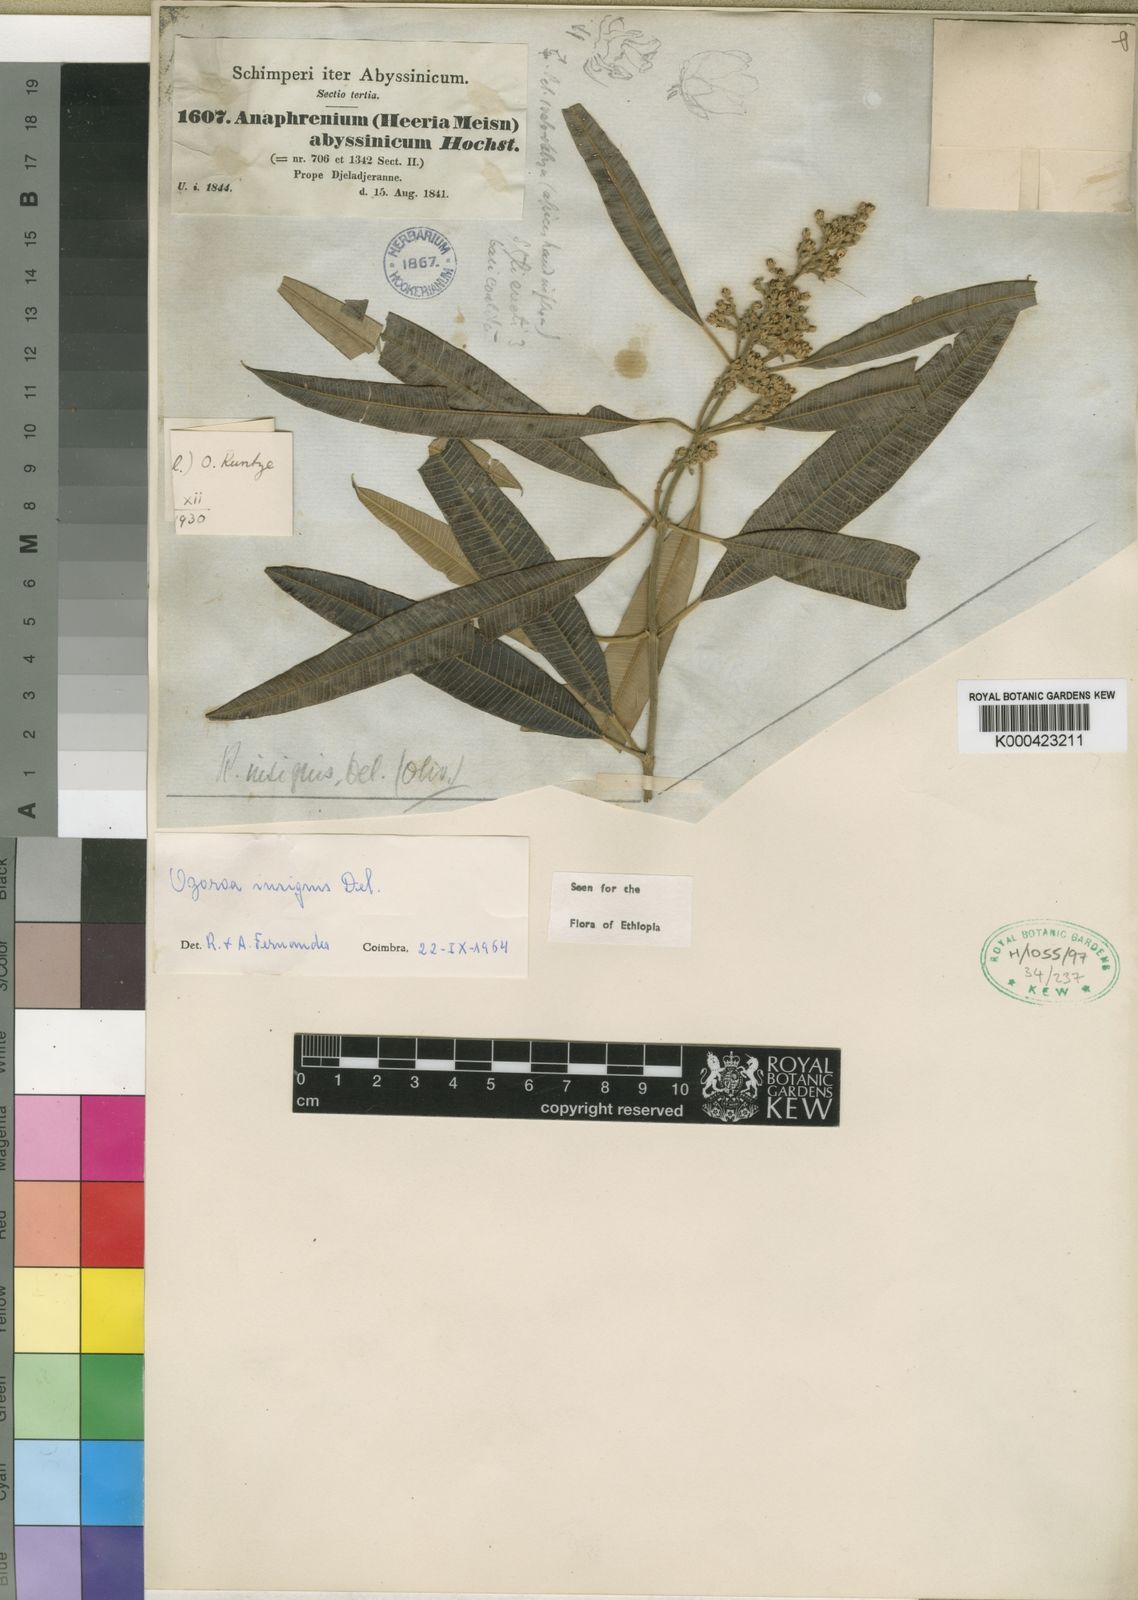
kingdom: Plantae
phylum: Tracheophyta
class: Magnoliopsida
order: Sapindales
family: Anacardiaceae
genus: Ozoroa
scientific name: Ozoroa insignis
